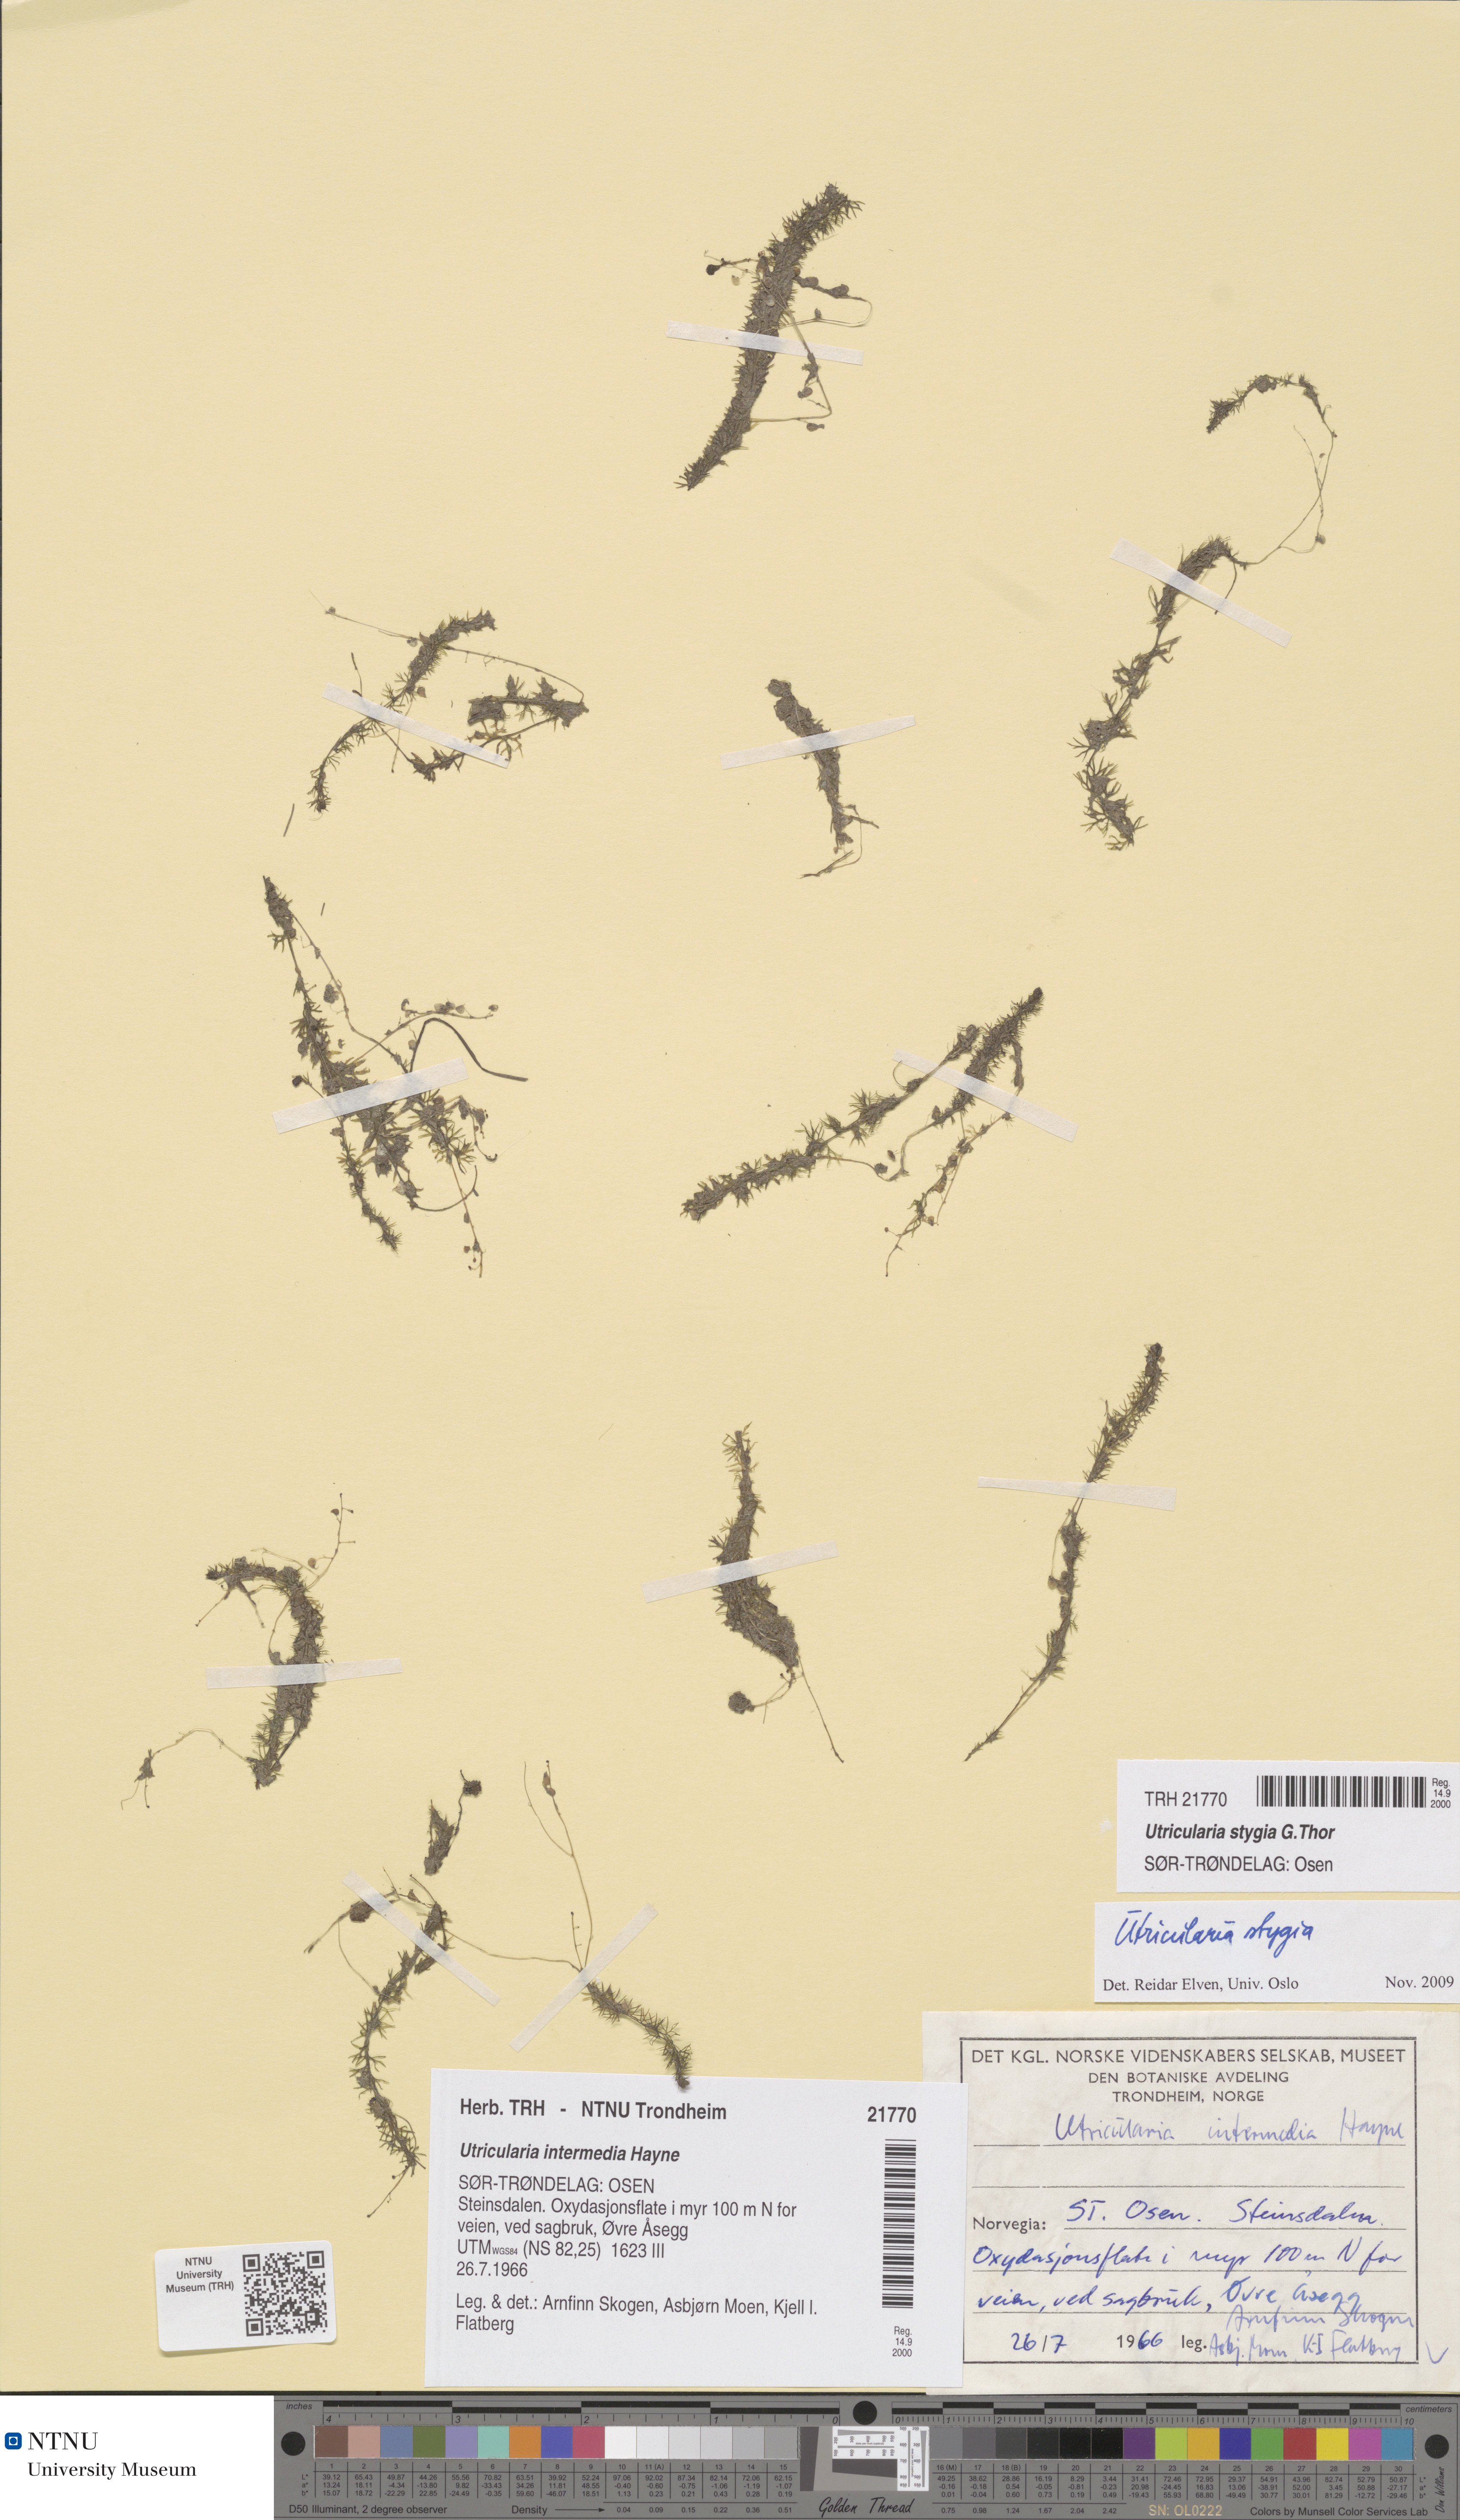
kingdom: Plantae
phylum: Tracheophyta
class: Magnoliopsida
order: Lamiales
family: Lentibulariaceae
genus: Utricularia
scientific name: Utricularia ochroleuca
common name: Pale bladderwort
